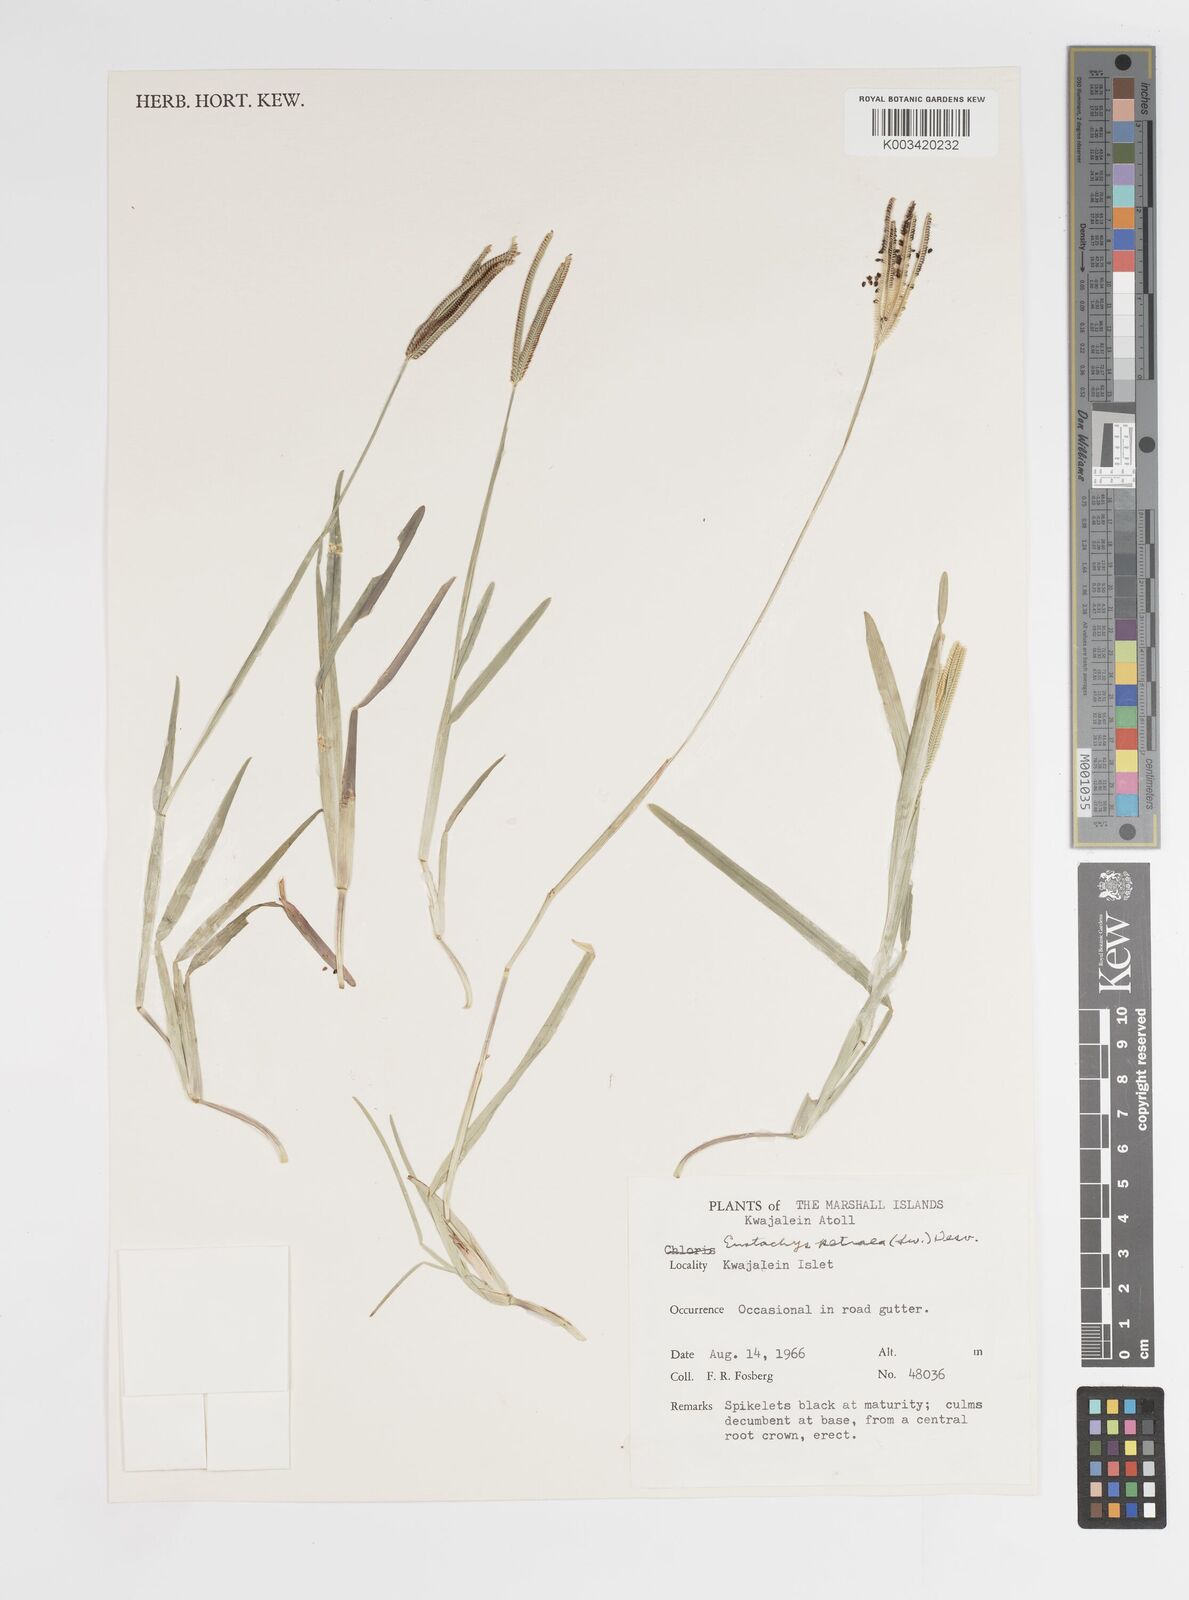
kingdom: Plantae
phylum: Tracheophyta
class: Liliopsida
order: Poales
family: Poaceae
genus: Eustachys
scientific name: Eustachys petraea
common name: Pinewoods fingergrass
